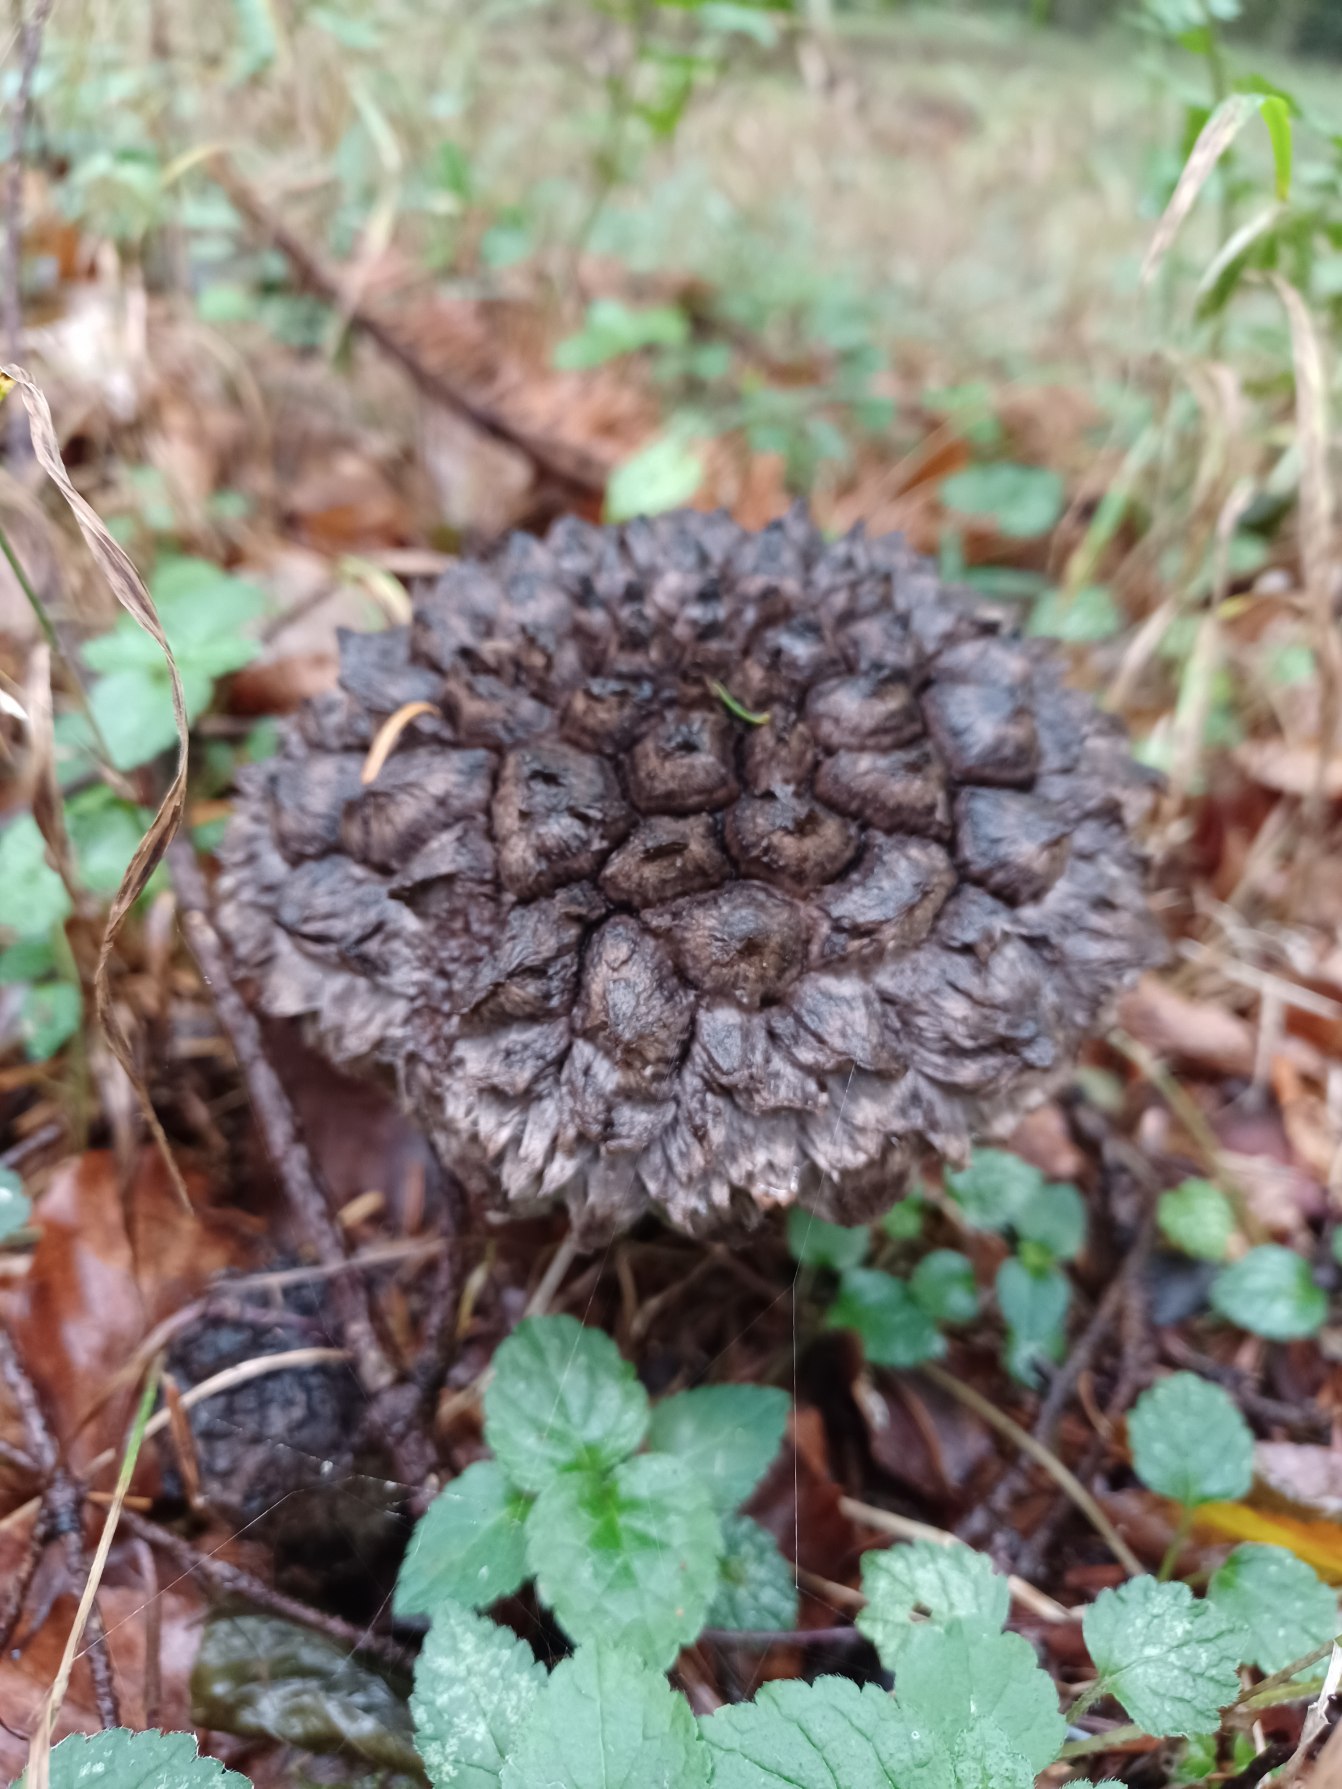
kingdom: Fungi
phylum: Basidiomycota
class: Agaricomycetes
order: Boletales
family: Boletaceae
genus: Strobilomyces
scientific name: Strobilomyces strobilaceus
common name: Koglerørhat
